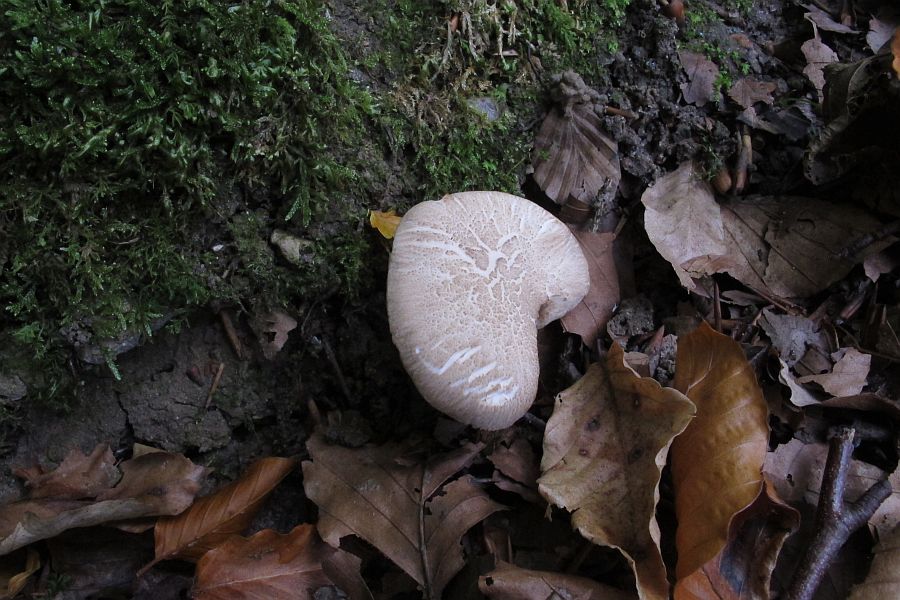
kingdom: Fungi
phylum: Basidiomycota
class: Agaricomycetes
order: Polyporales
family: Polyporaceae
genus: Picipes
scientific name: Picipes melanopus
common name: sortfodet stilkporesvamp
